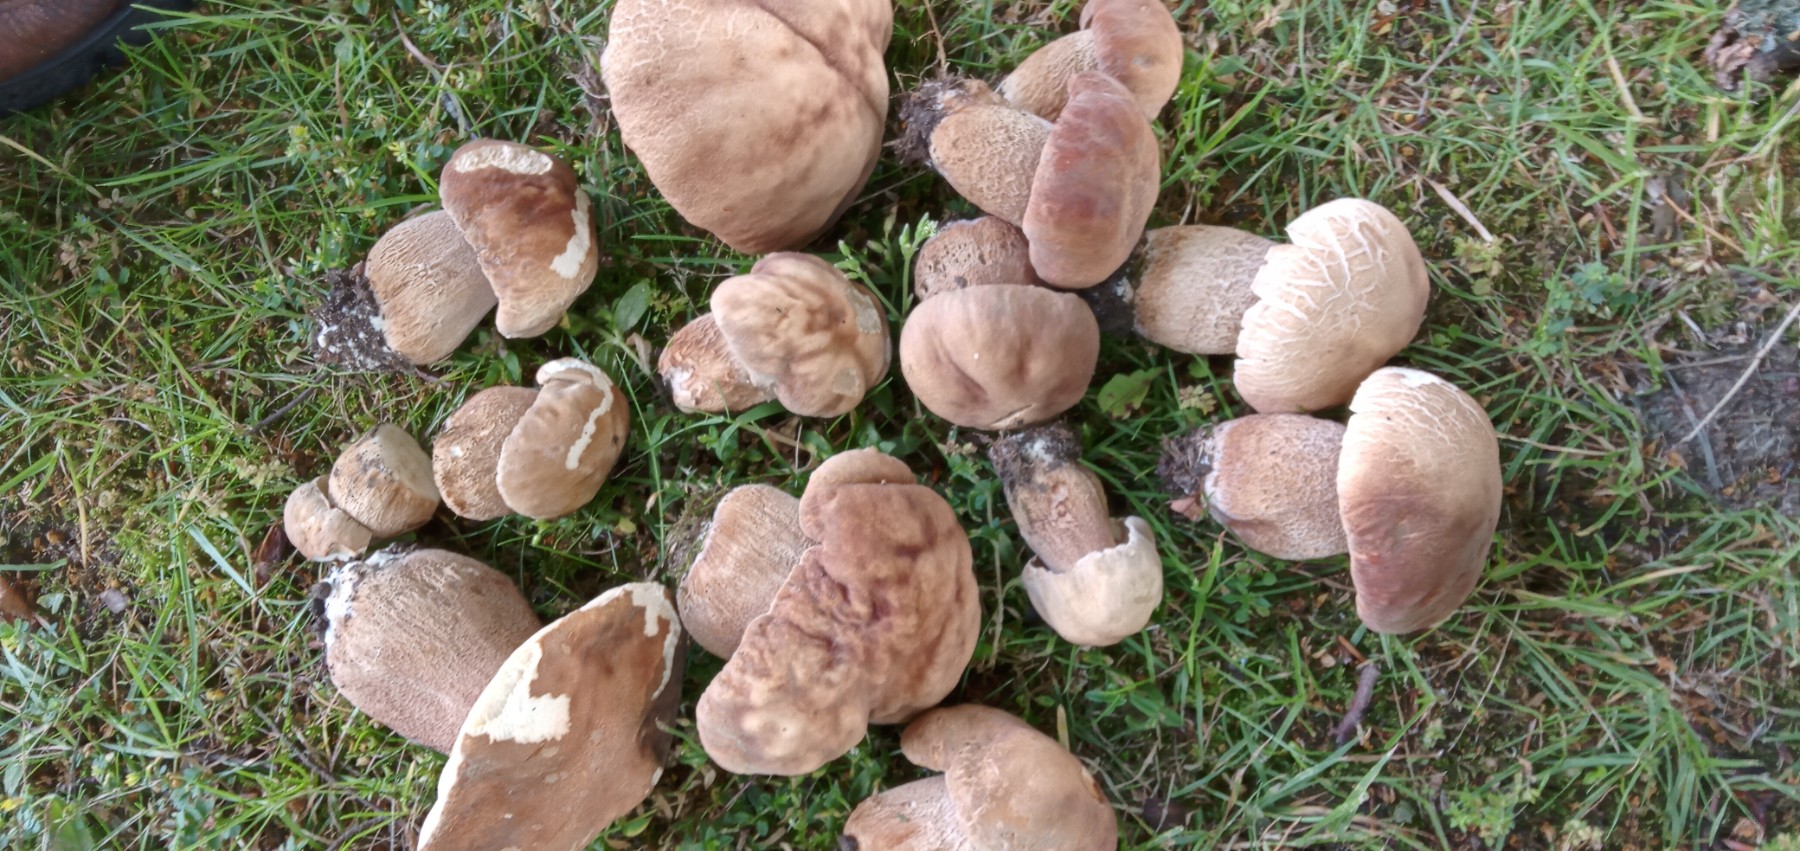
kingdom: Fungi
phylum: Basidiomycota
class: Agaricomycetes
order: Boletales
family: Boletaceae
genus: Boletus
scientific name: Boletus reticulatus
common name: sommer-rørhat
